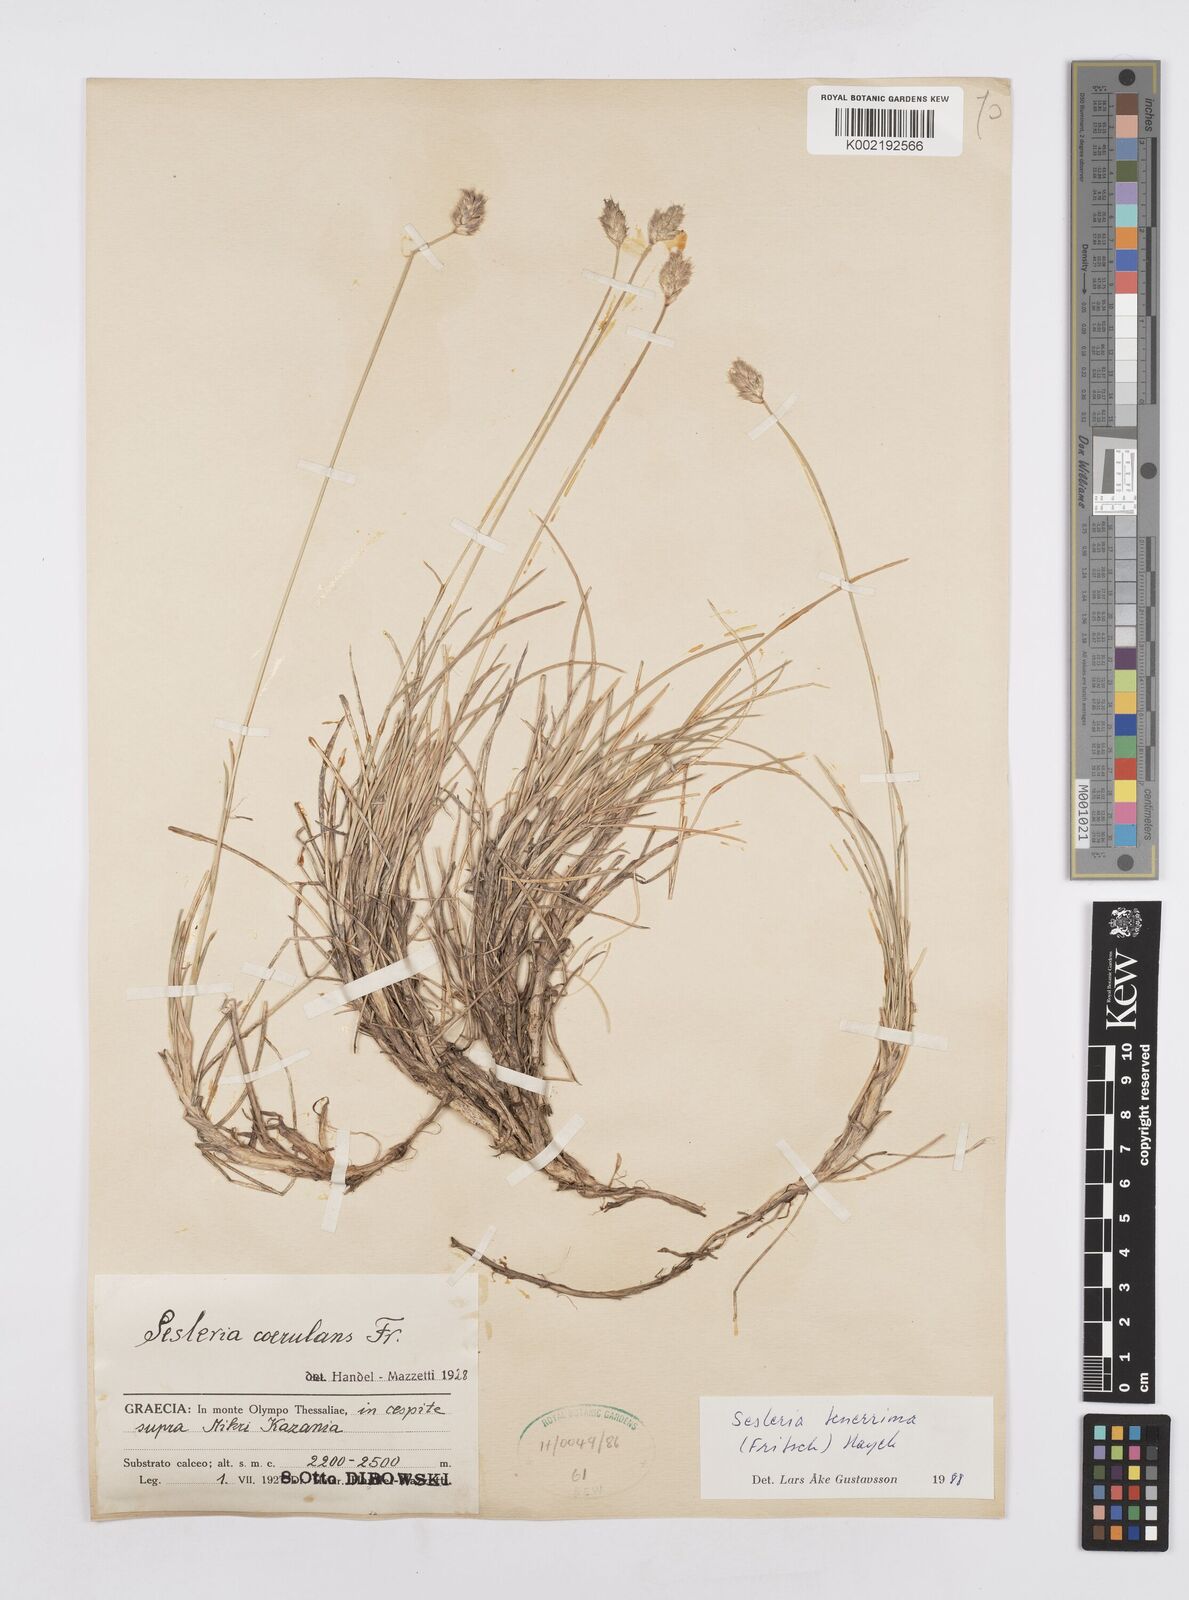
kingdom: Plantae
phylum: Tracheophyta
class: Liliopsida
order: Poales
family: Poaceae
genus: Sesleria
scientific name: Sesleria tenerrima
